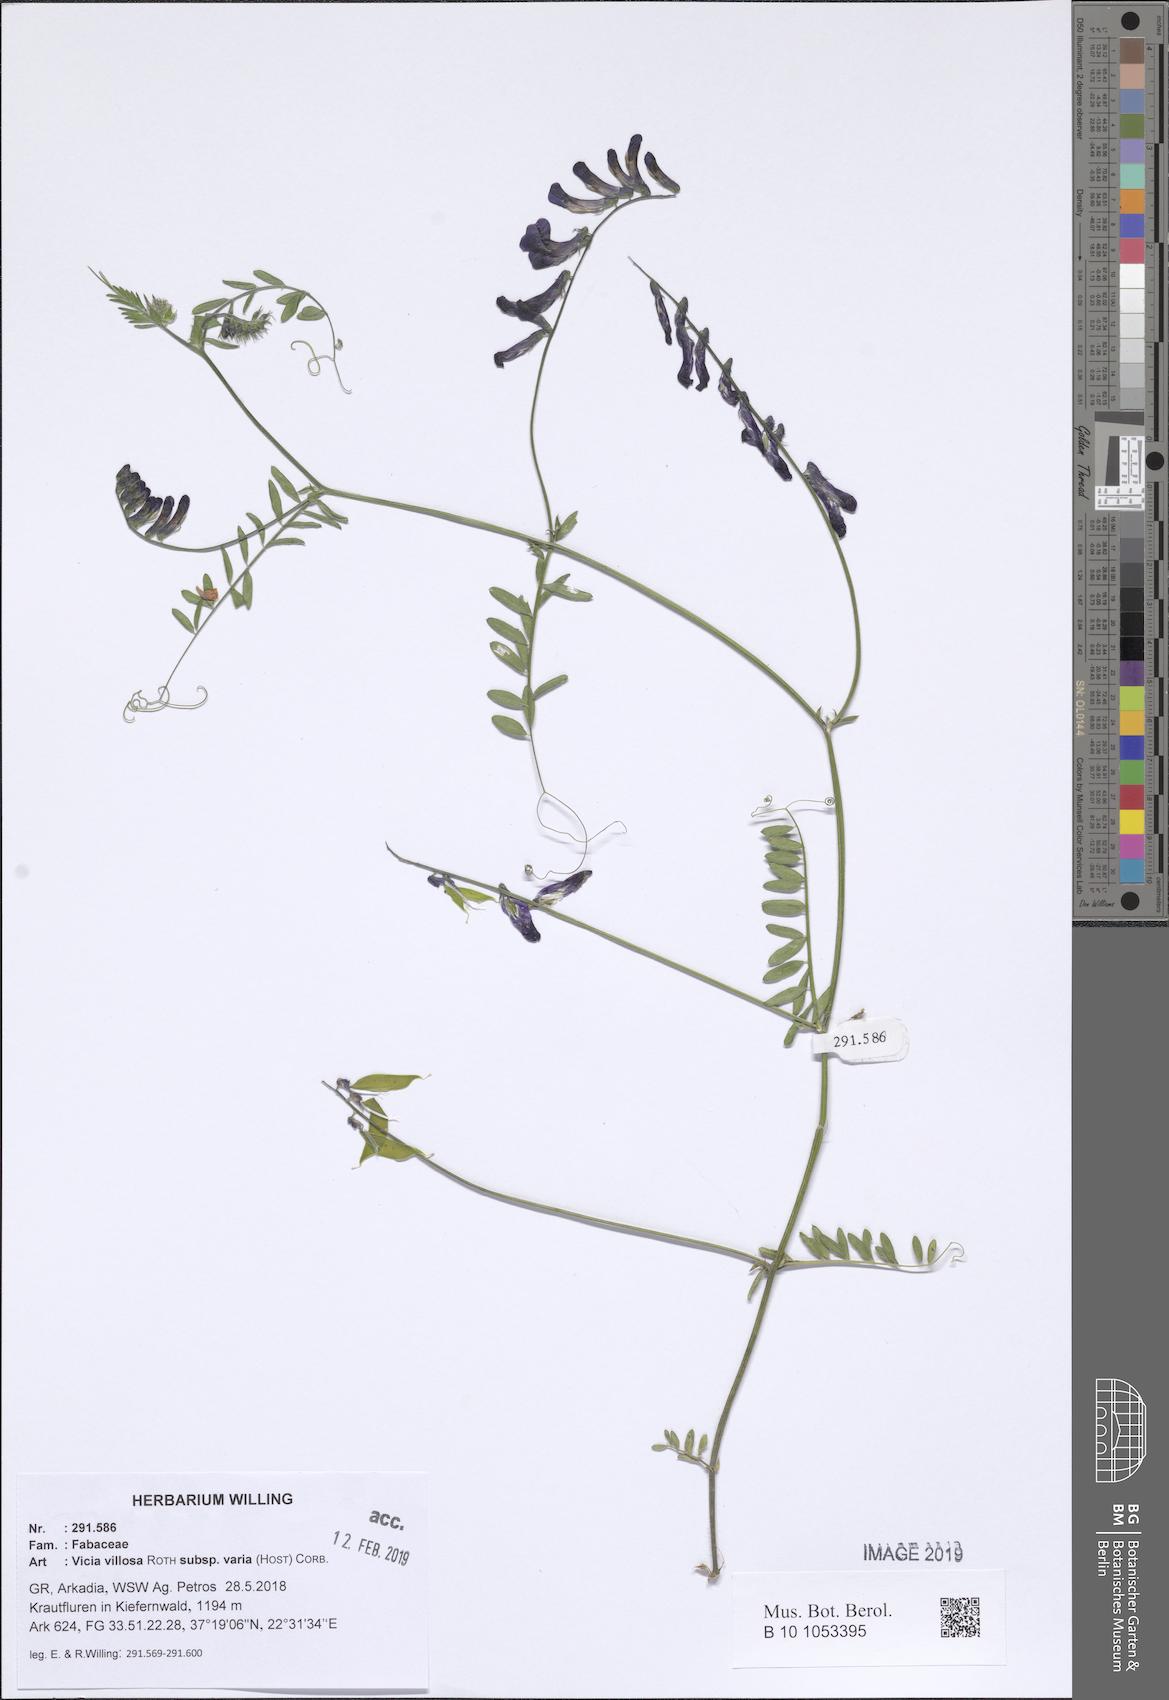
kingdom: Plantae
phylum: Tracheophyta
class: Magnoliopsida
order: Fabales
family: Fabaceae
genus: Vicia
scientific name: Vicia villosa
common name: Fodder vetch
